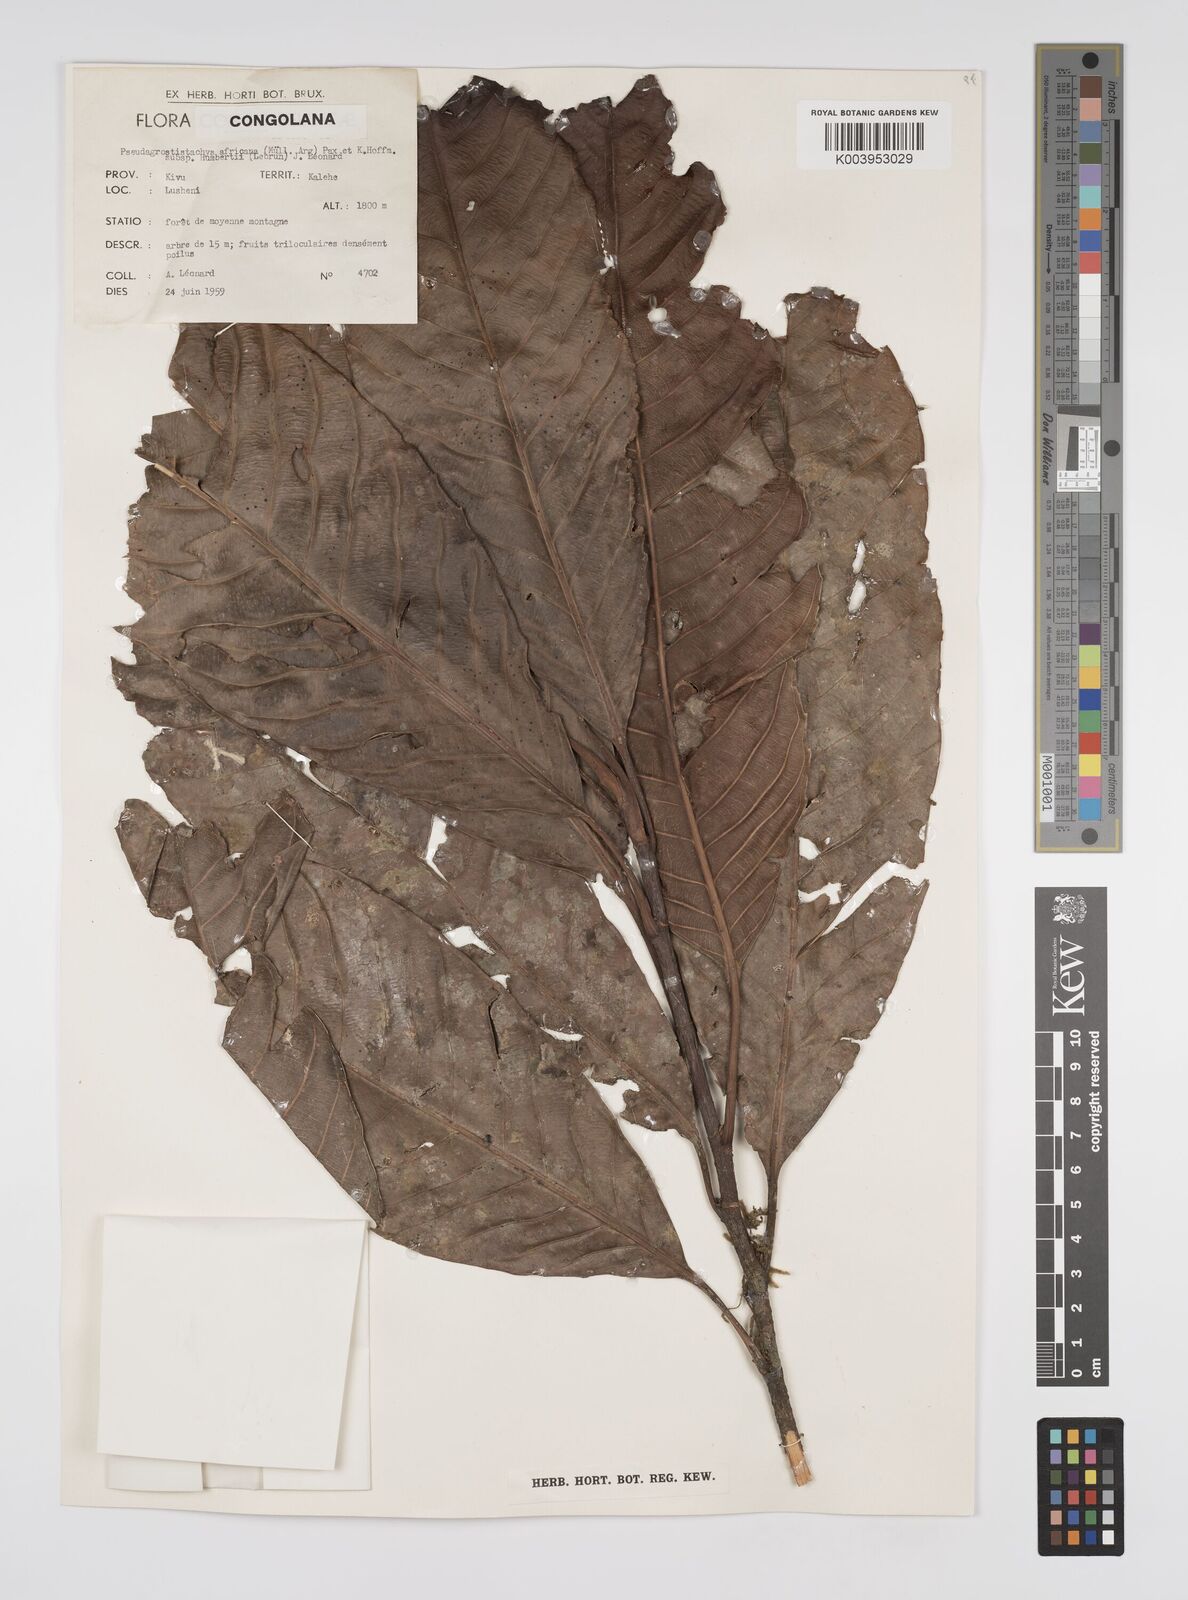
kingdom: Plantae
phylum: Tracheophyta
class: Magnoliopsida
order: Malpighiales
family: Euphorbiaceae
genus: Pseudagrostistachys
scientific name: Pseudagrostistachys africana
